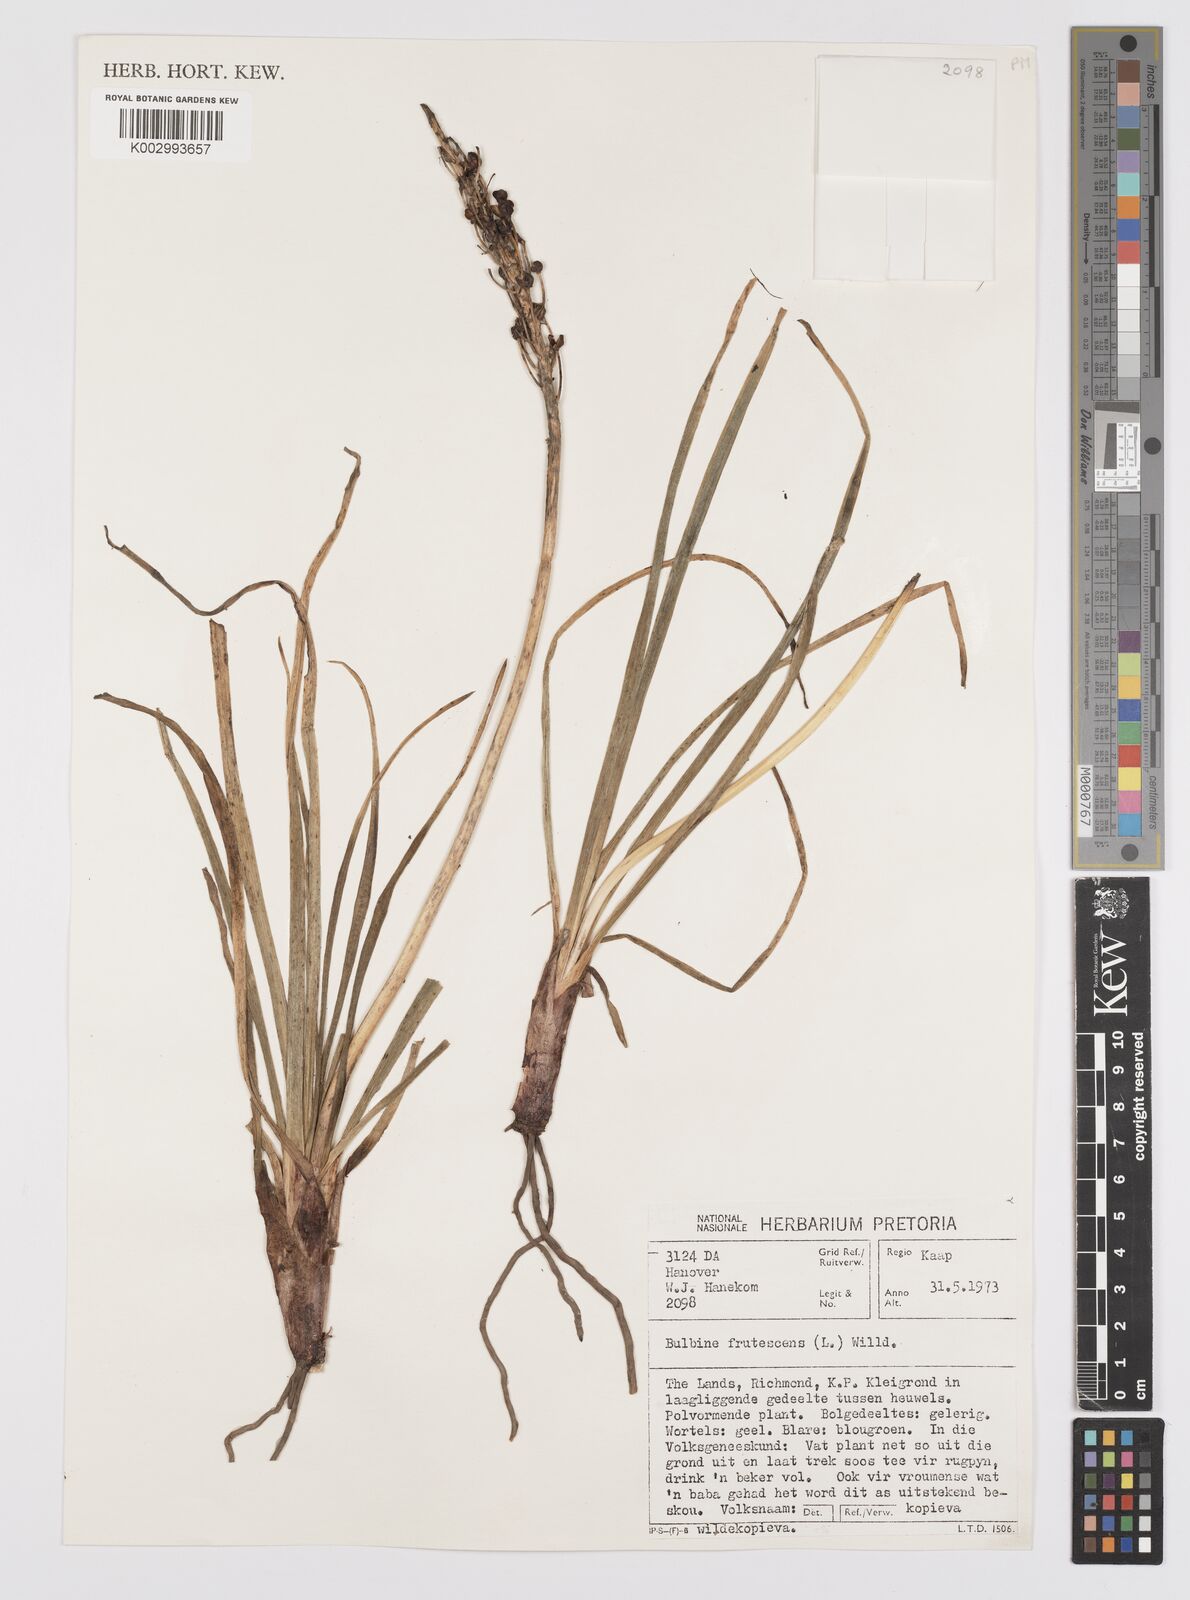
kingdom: Plantae
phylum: Tracheophyta
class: Liliopsida
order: Asparagales
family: Asphodelaceae
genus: Bulbine
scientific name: Bulbine frutescens
